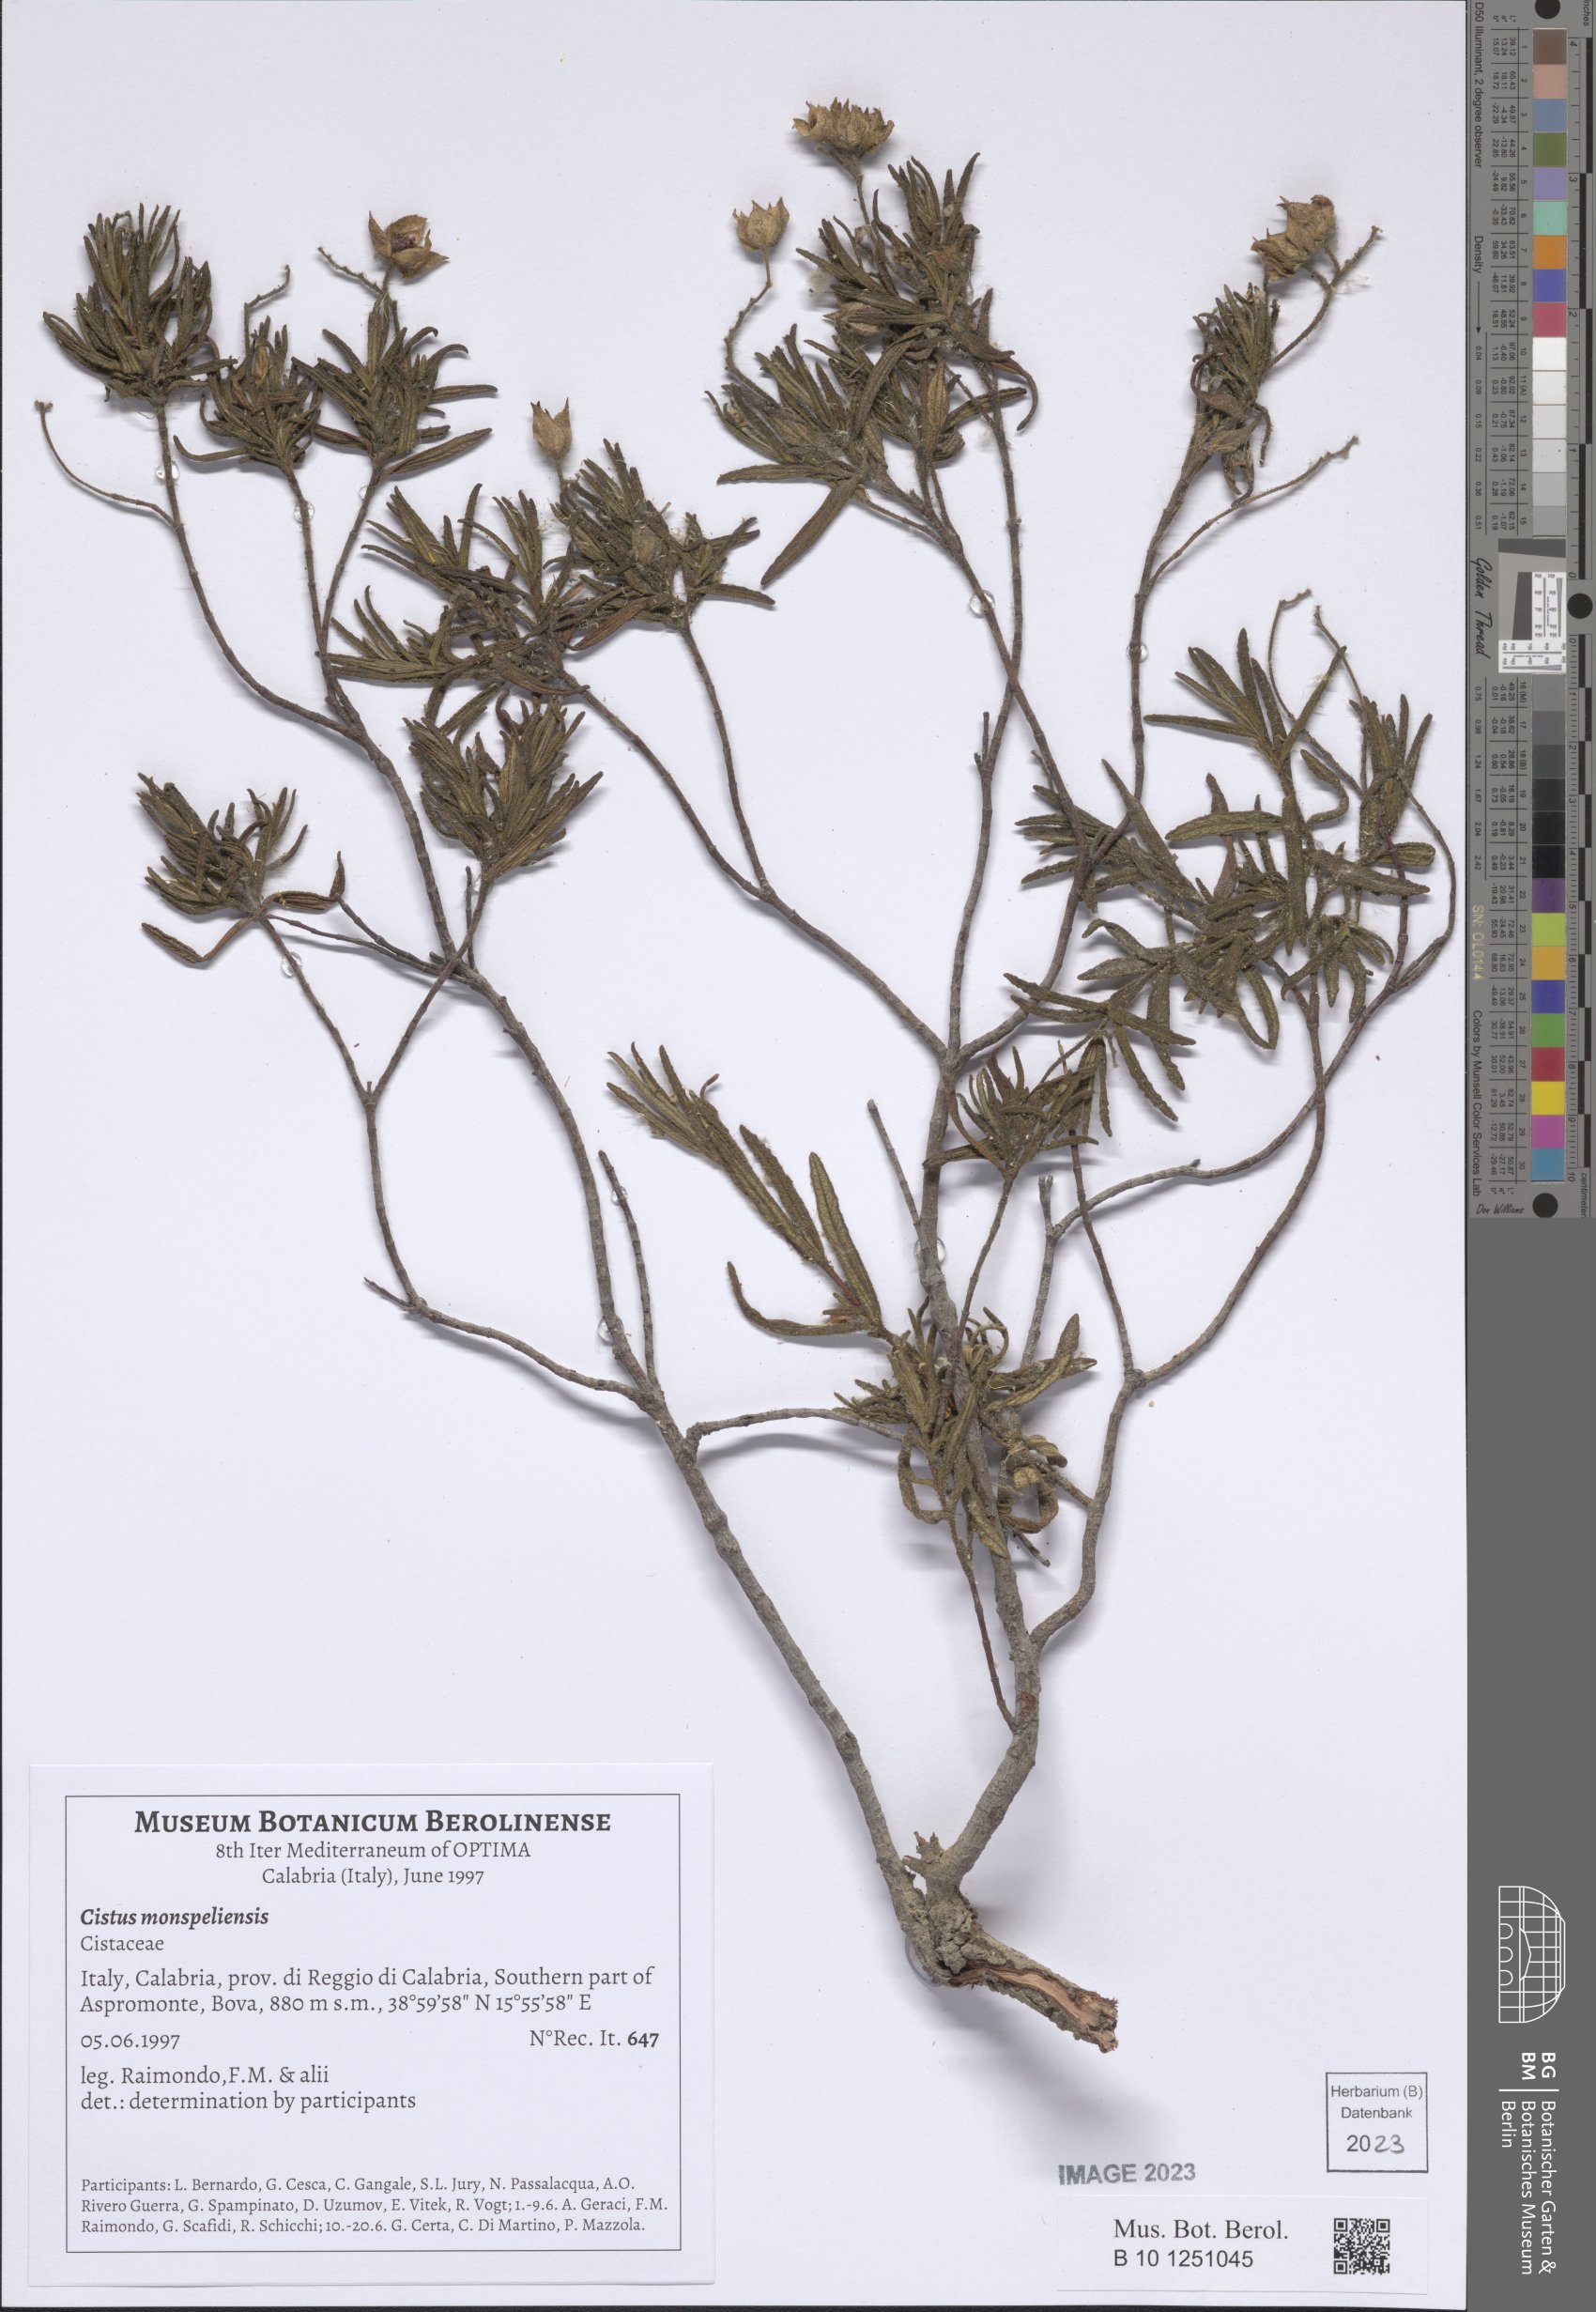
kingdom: Plantae
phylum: Tracheophyta
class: Magnoliopsida
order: Malvales
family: Cistaceae
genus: Cistus
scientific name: Cistus monspeliensis
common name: Montpelier cistus
